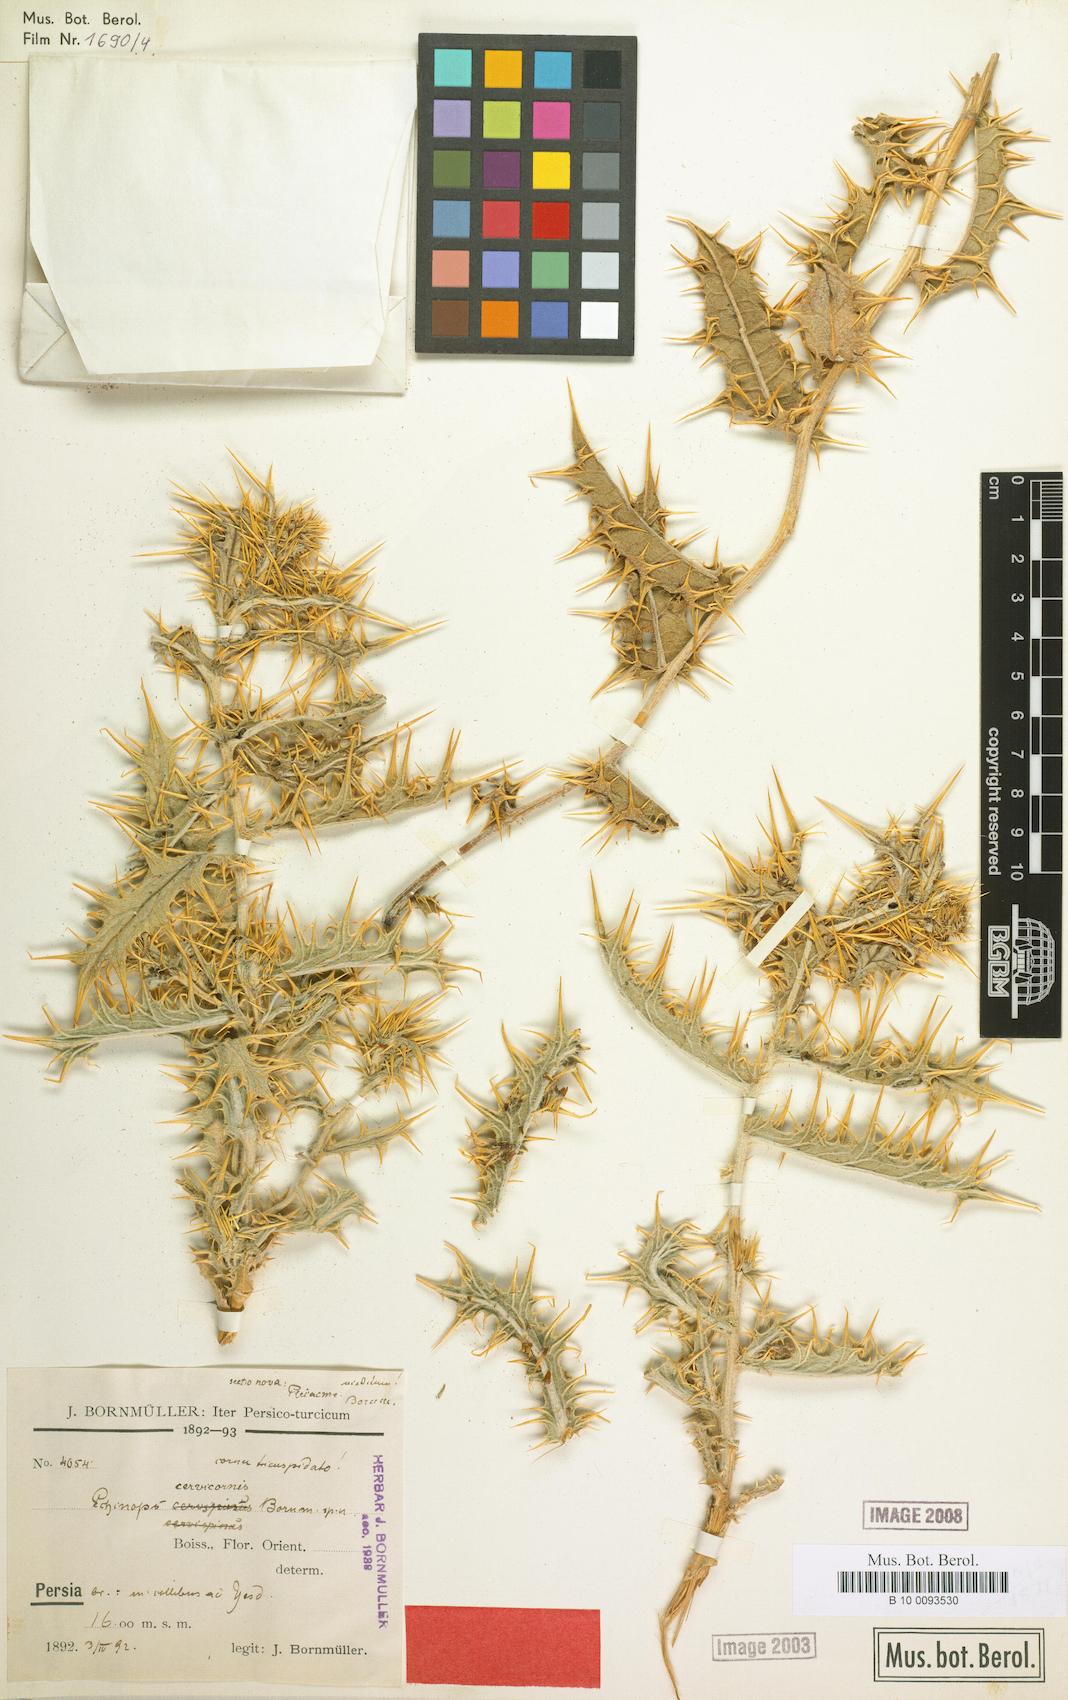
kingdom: Plantae
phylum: Tracheophyta
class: Magnoliopsida
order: Asterales
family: Asteraceae
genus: Echinops
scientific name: Echinops cervicornis
